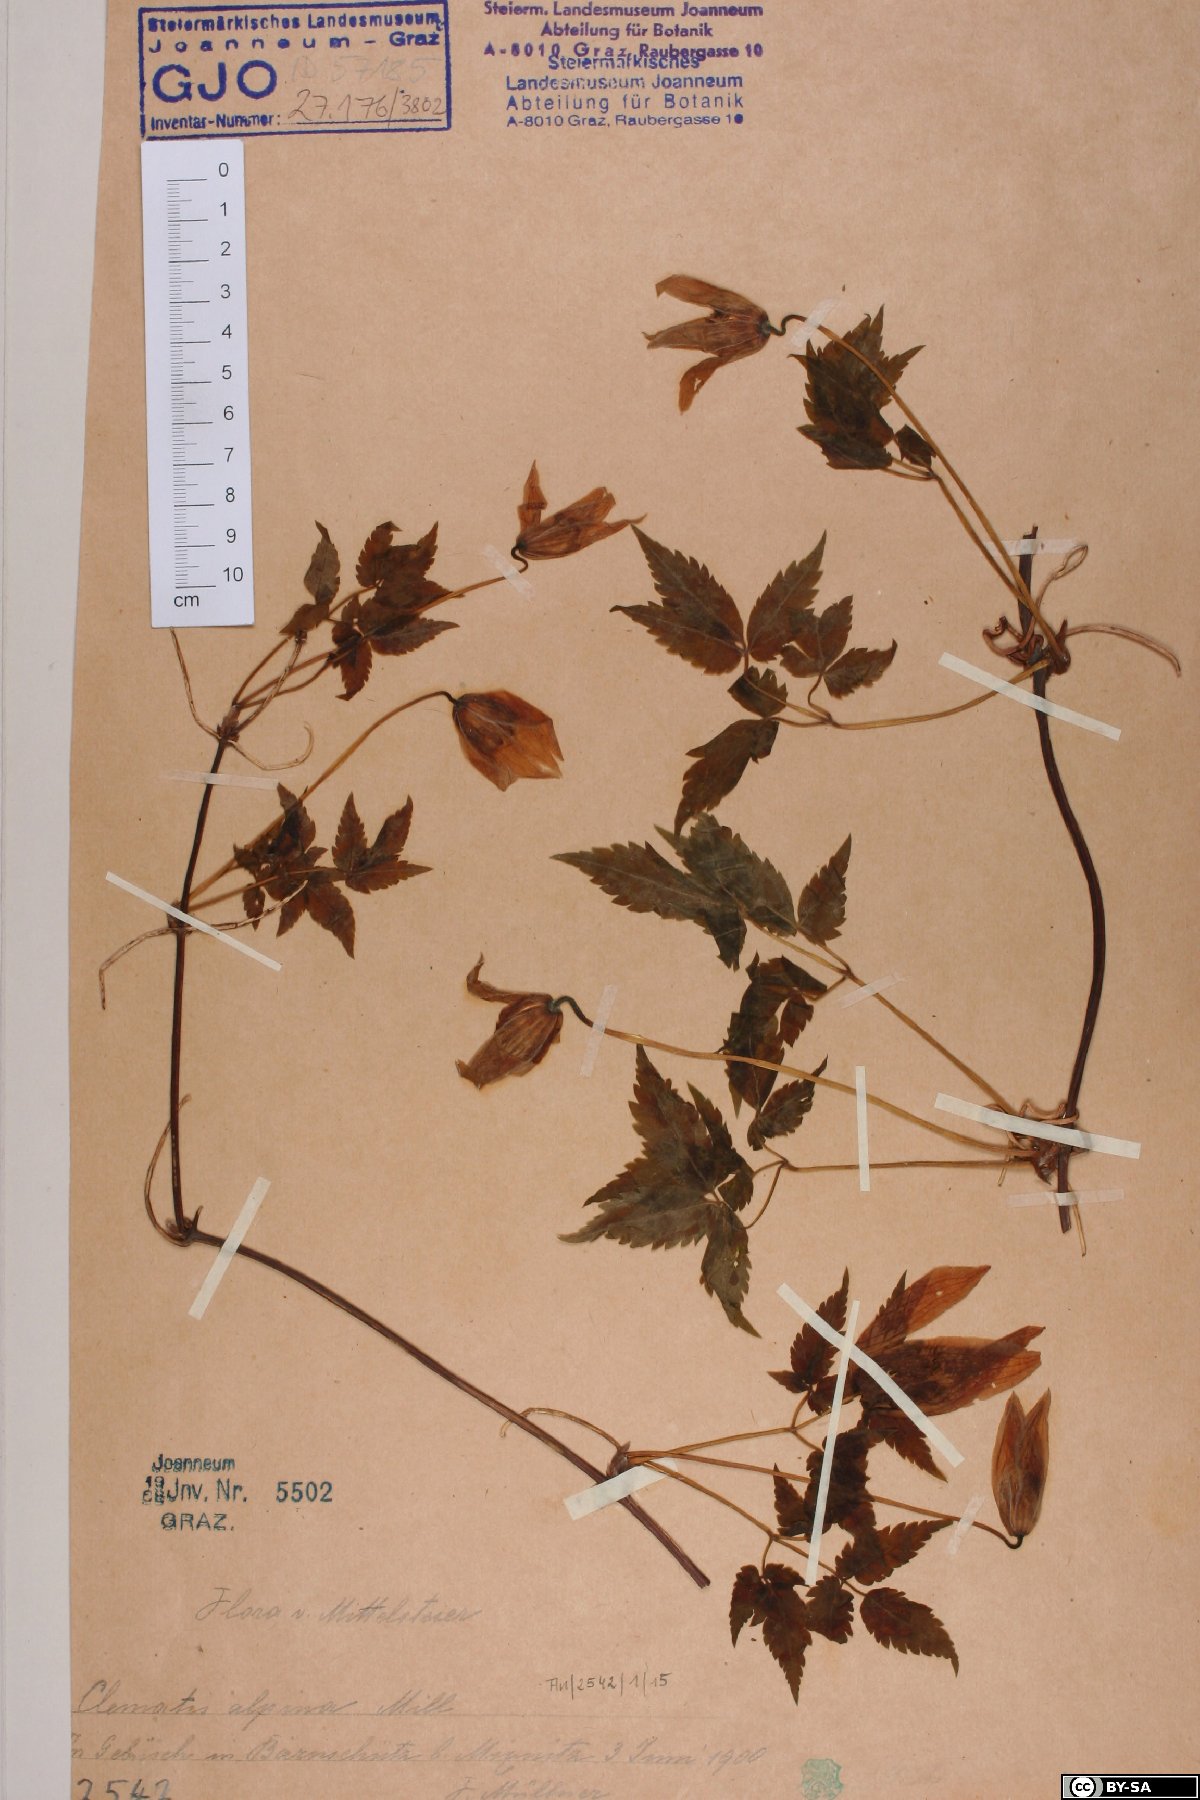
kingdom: Plantae
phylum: Tracheophyta
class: Magnoliopsida
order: Ranunculales
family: Ranunculaceae
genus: Clematis
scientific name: Clematis alpina
